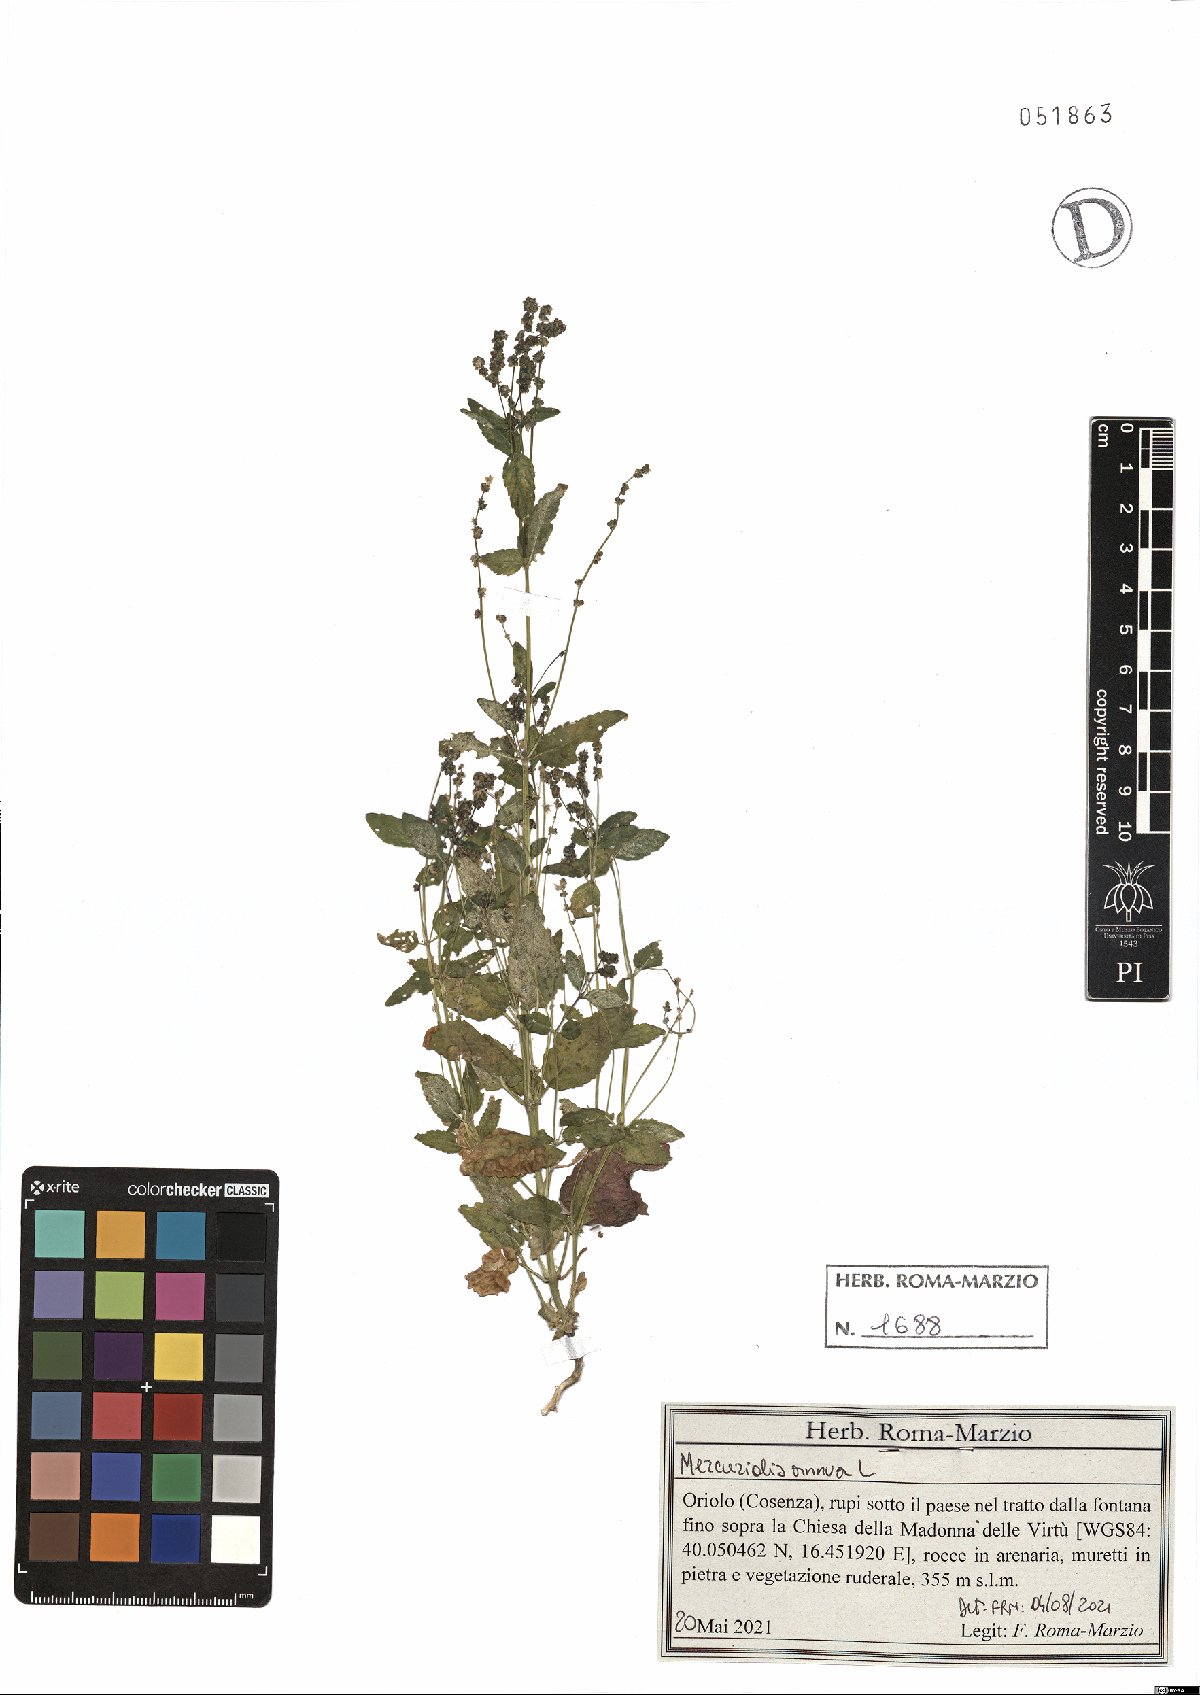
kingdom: Plantae
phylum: Tracheophyta
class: Magnoliopsida
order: Malpighiales
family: Euphorbiaceae
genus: Mercurialis
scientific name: Mercurialis annua
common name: Annual mercury
